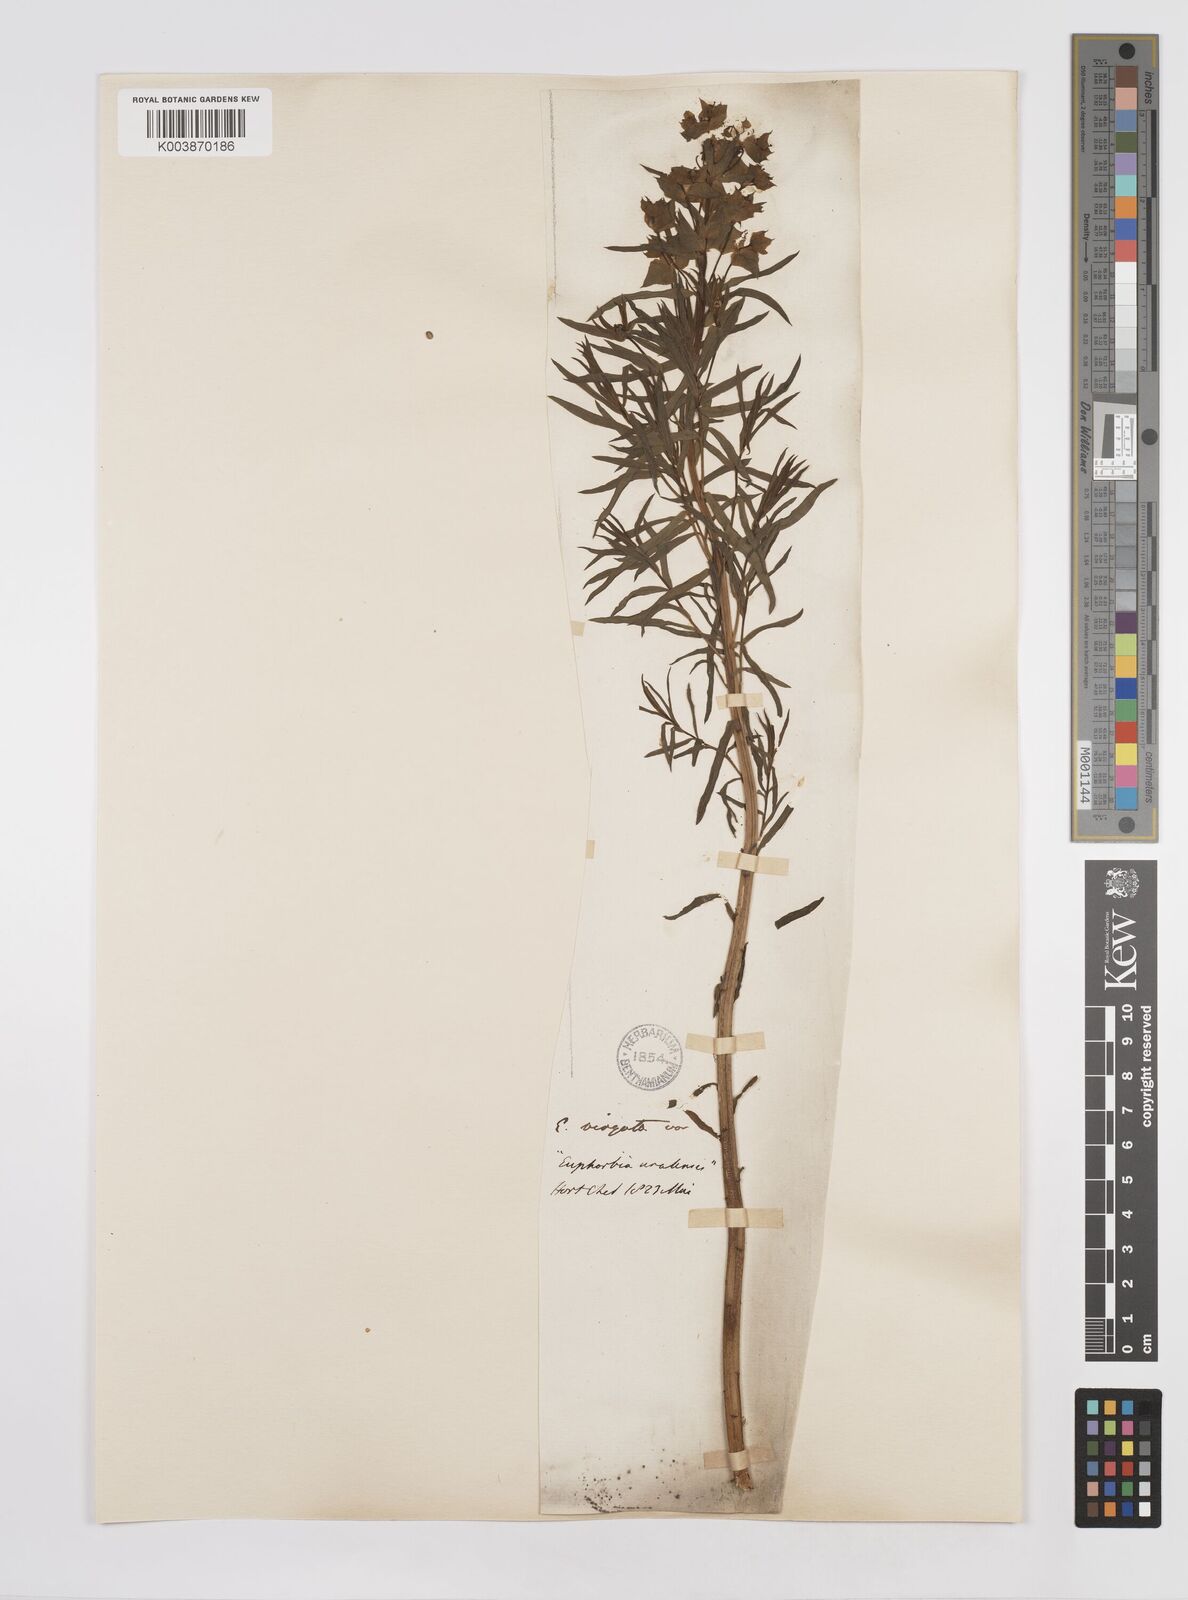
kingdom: Plantae
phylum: Tracheophyta
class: Magnoliopsida
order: Malpighiales
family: Euphorbiaceae
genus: Euphorbia
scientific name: Euphorbia
